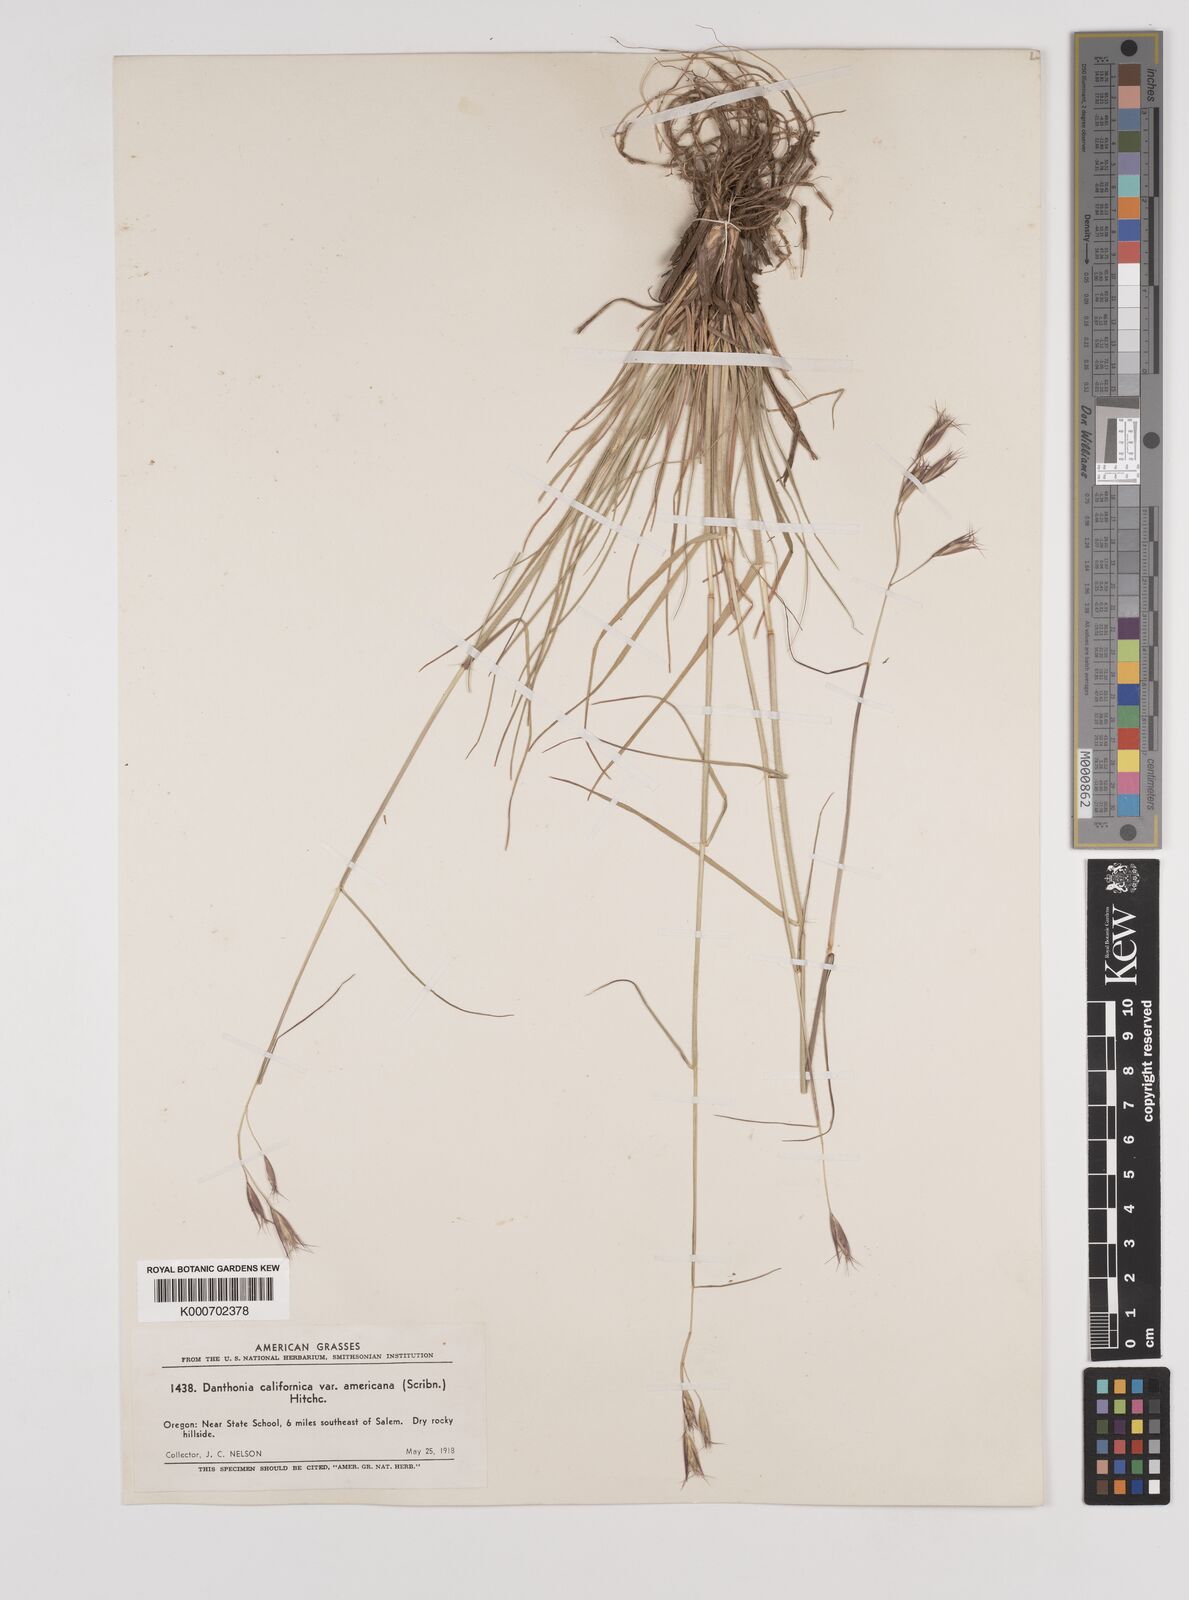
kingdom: Plantae
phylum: Tracheophyta
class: Liliopsida
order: Poales
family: Poaceae
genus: Danthonia
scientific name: Danthonia californica
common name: California oat grass
